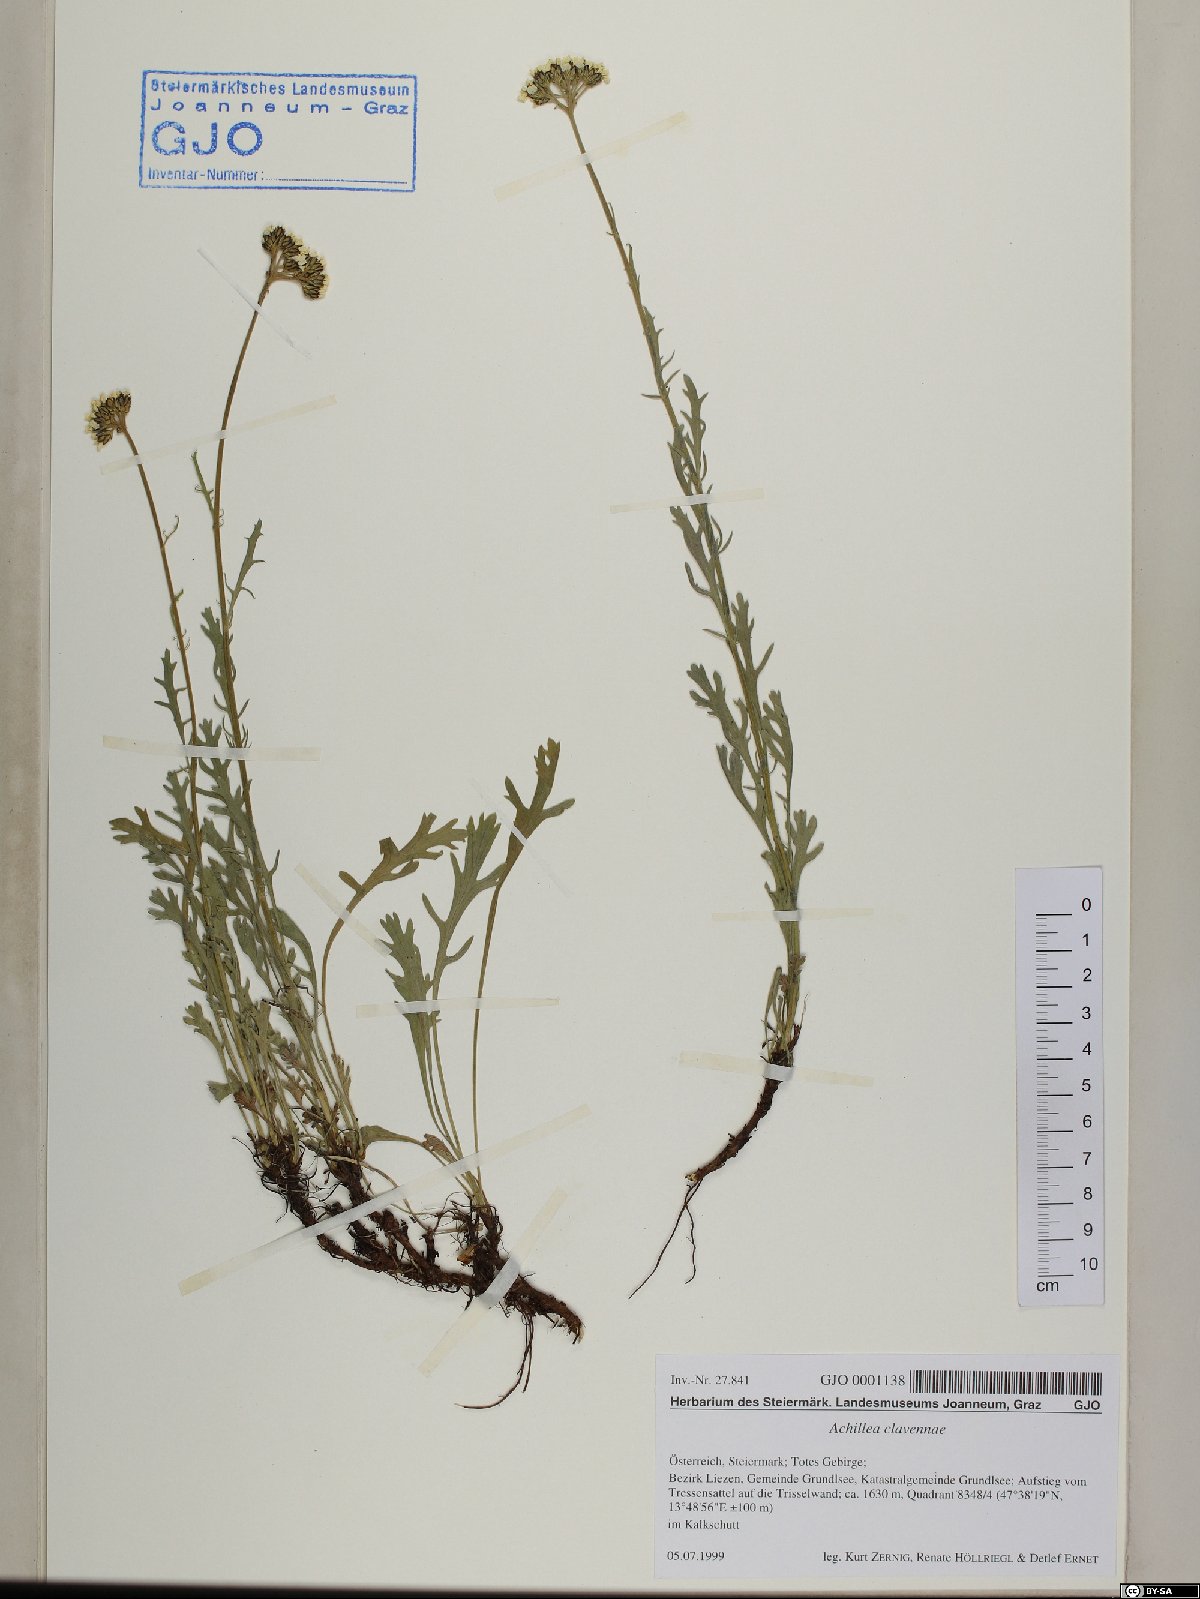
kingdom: Plantae
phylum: Tracheophyta
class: Magnoliopsida
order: Asterales
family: Asteraceae
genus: Achillea
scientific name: Achillea clavennae
